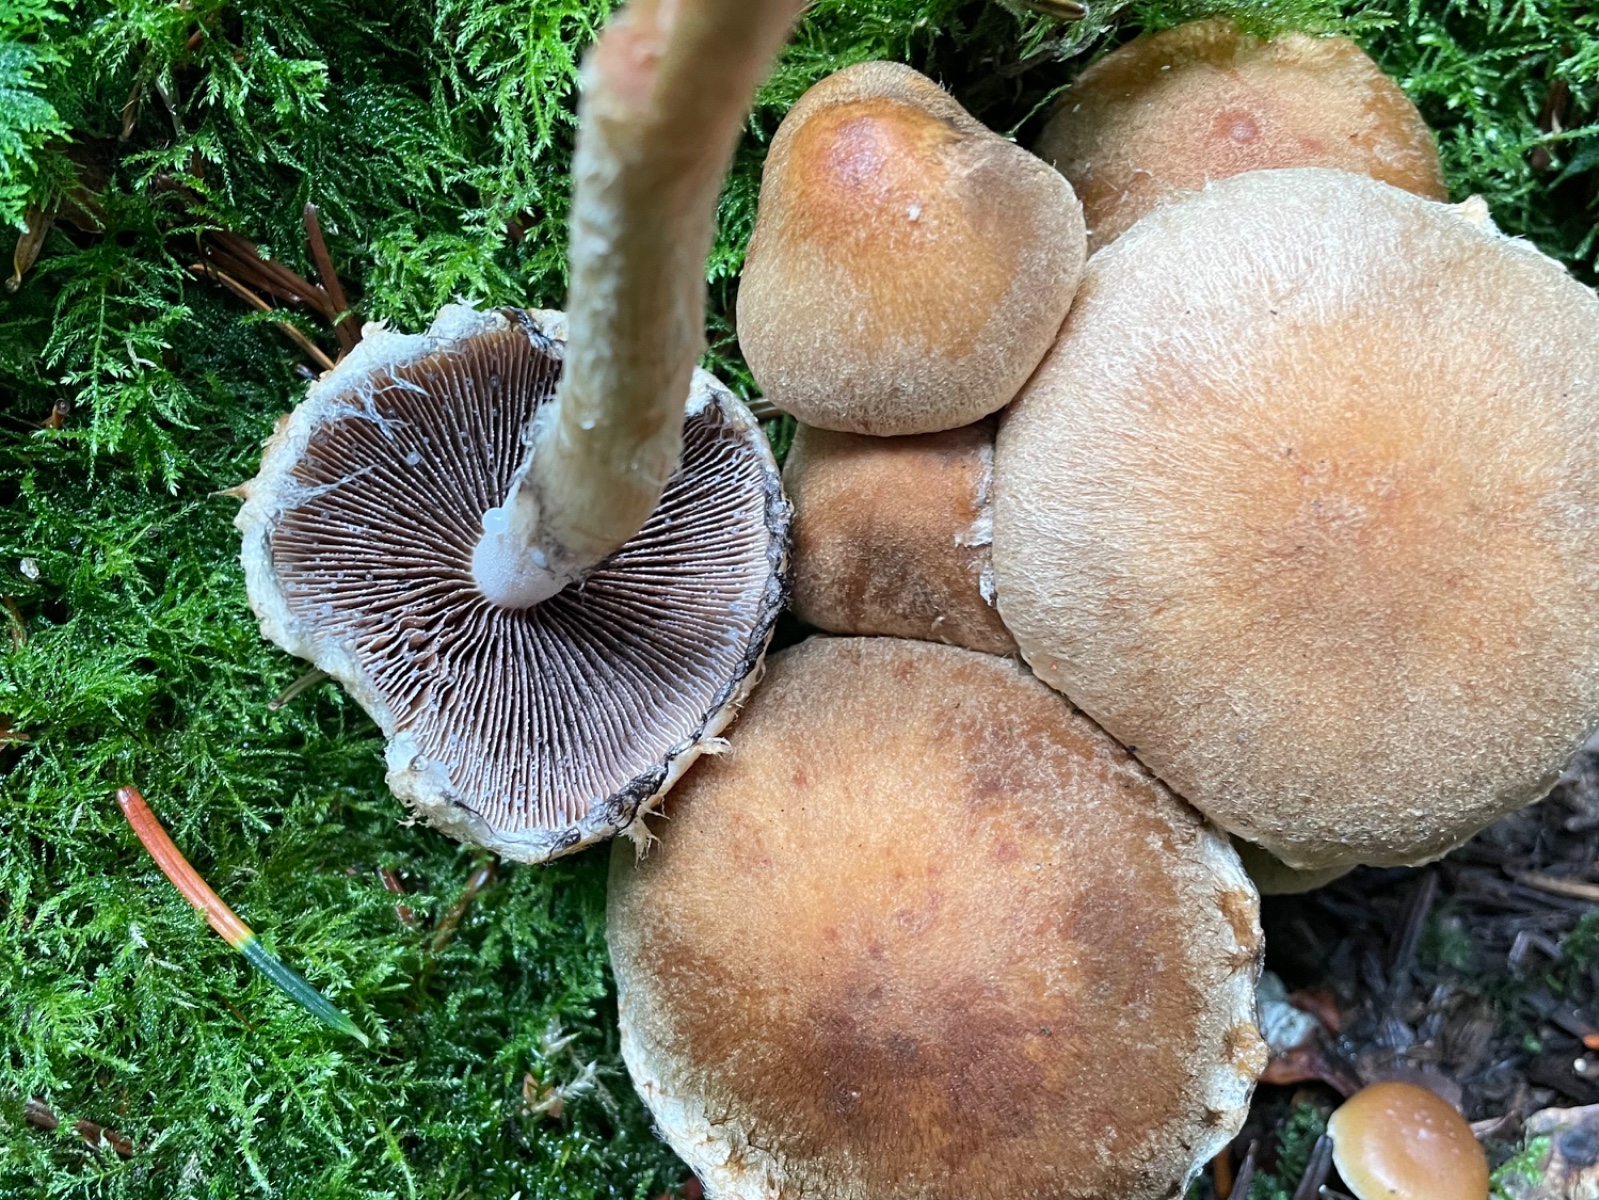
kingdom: Fungi
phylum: Basidiomycota
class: Agaricomycetes
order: Agaricales
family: Psathyrellaceae
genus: Lacrymaria
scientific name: Lacrymaria lacrymabunda
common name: grædende mørkhat
